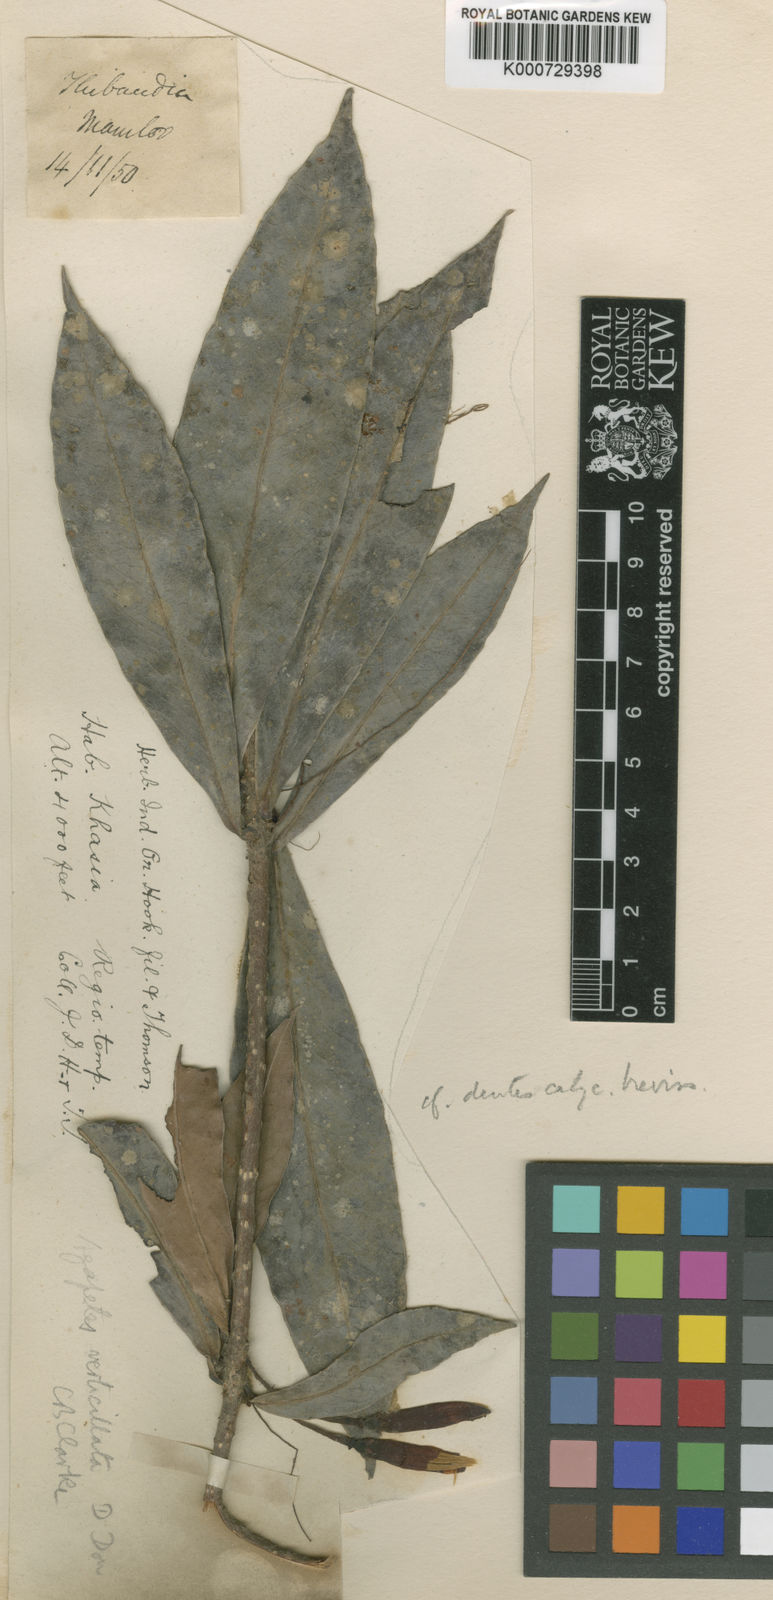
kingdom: Plantae
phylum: Tracheophyta
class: Magnoliopsida
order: Ericales
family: Ericaceae
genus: Agapetes
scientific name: Agapetes setigera
